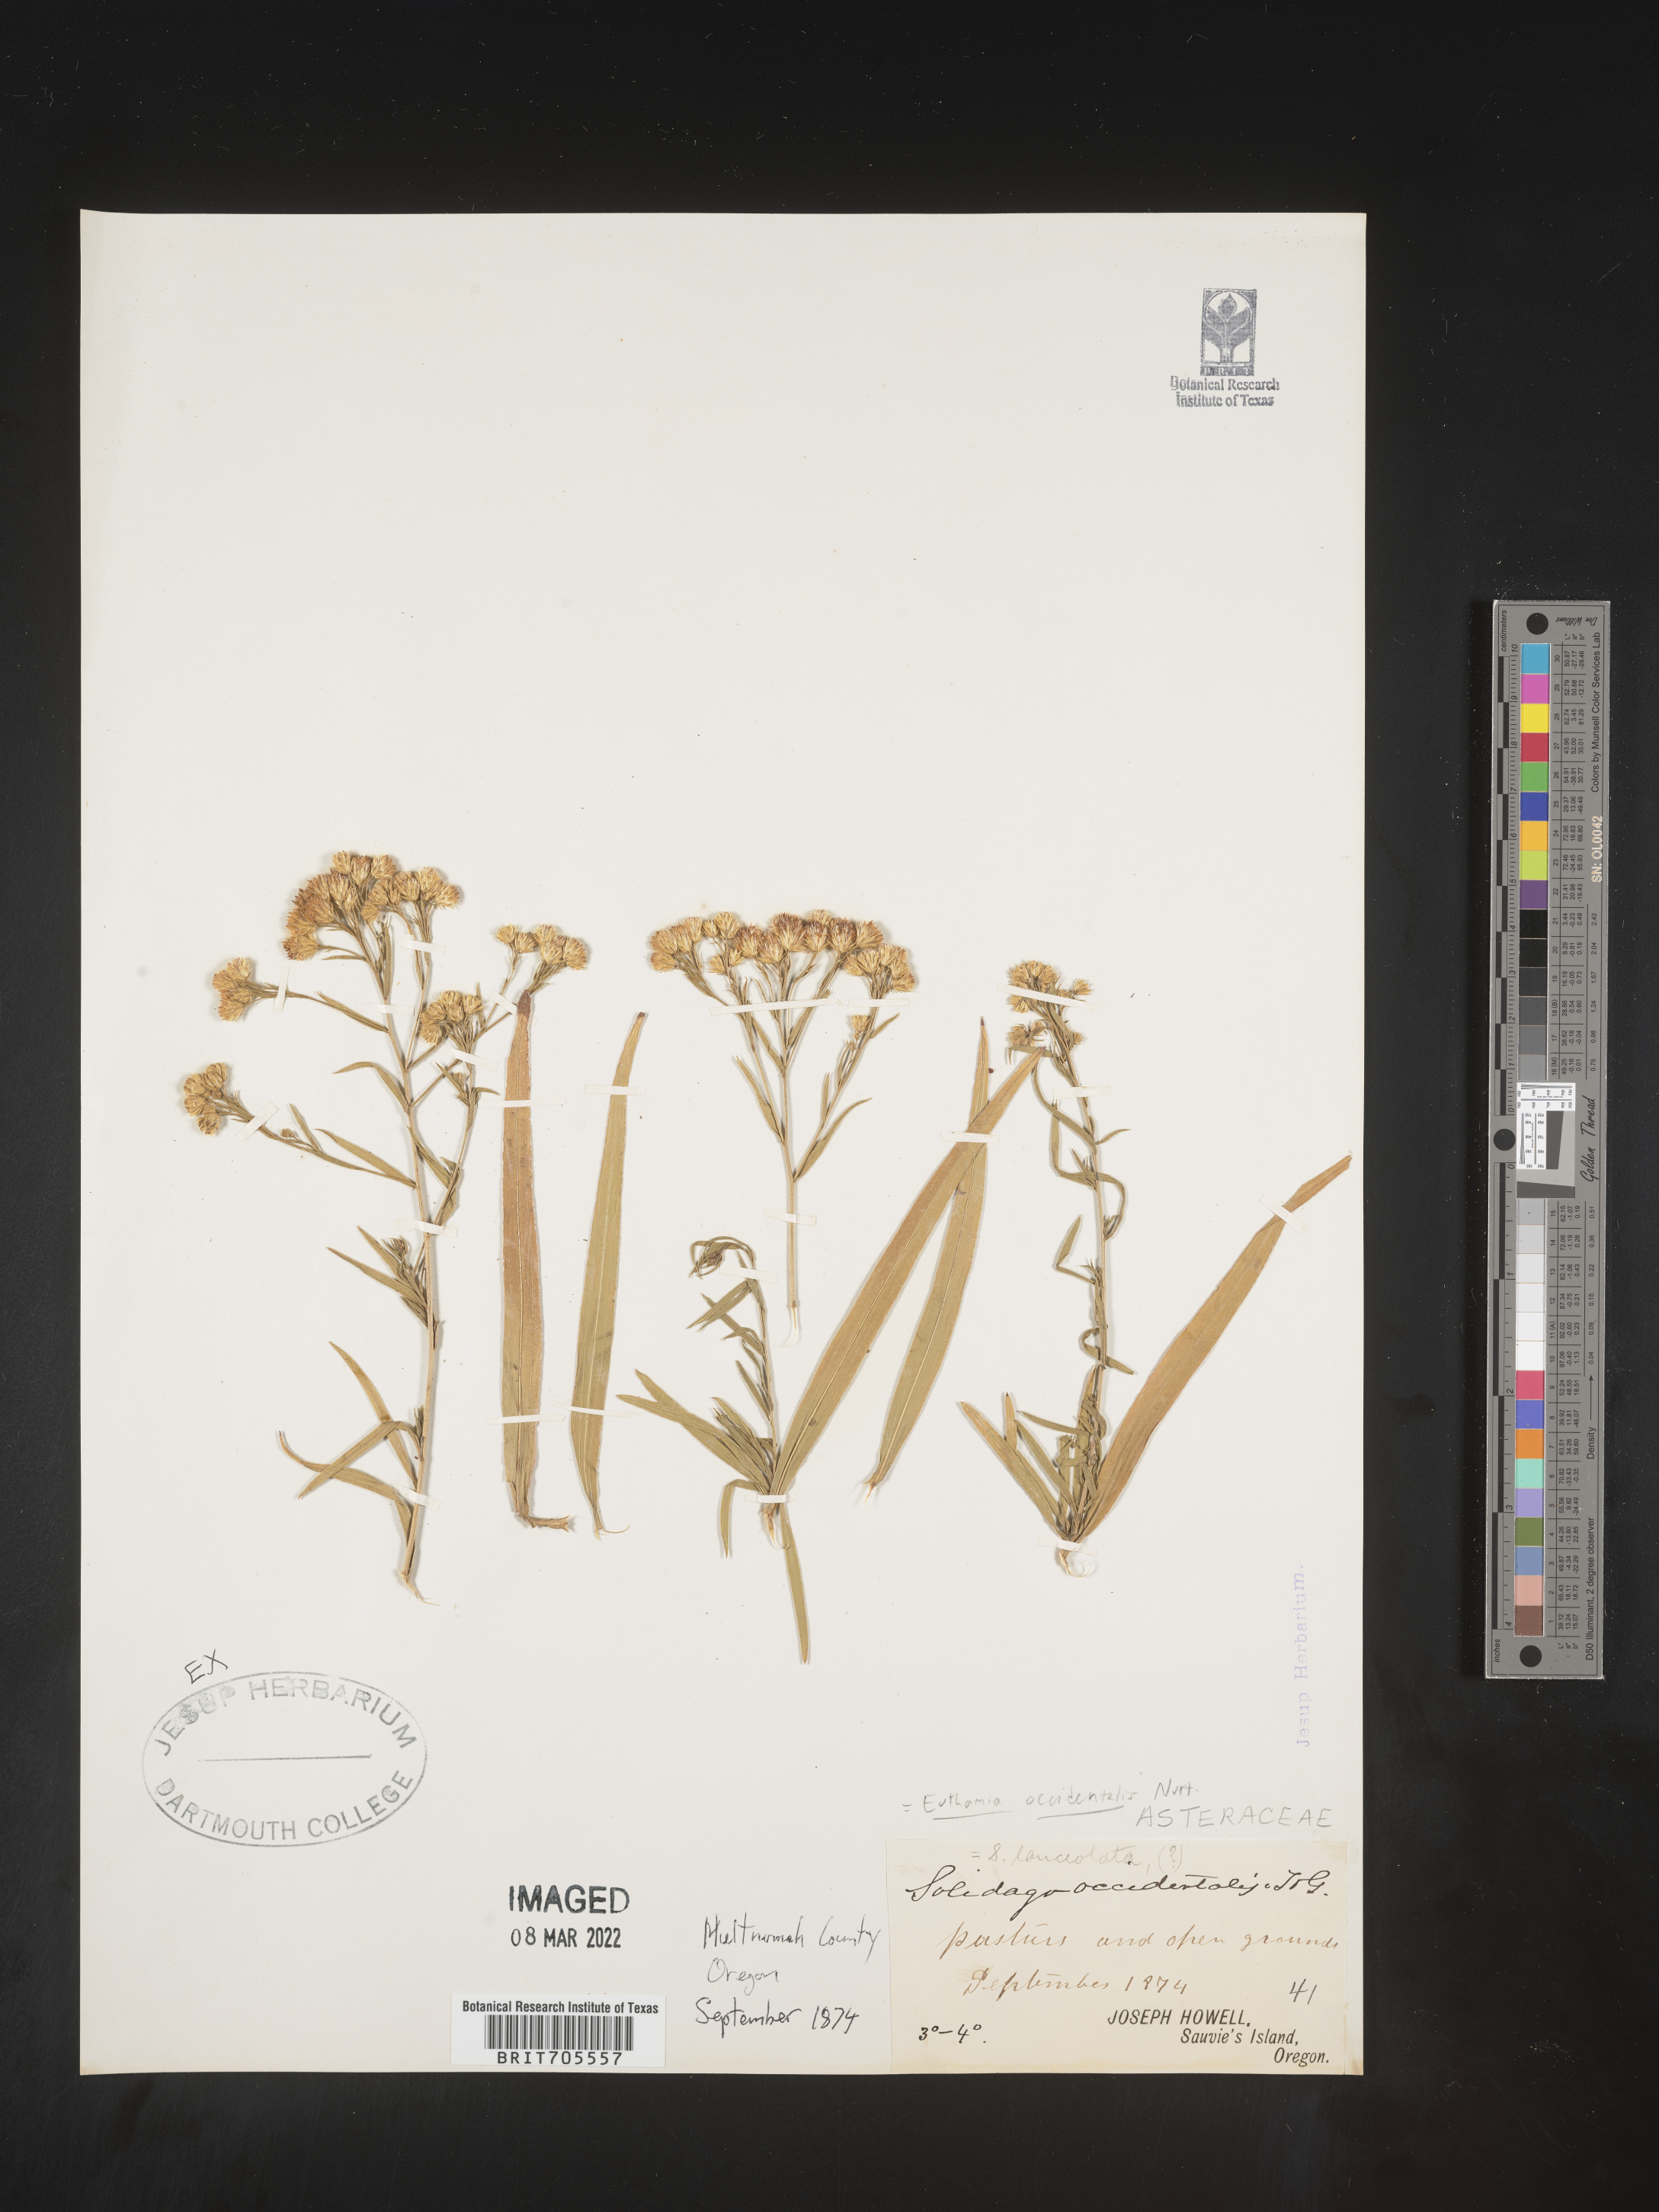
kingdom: Plantae
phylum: Tracheophyta
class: Magnoliopsida
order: Asterales
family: Asteraceae
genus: Euthamia
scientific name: Euthamia occidentalis
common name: Western goldentop
